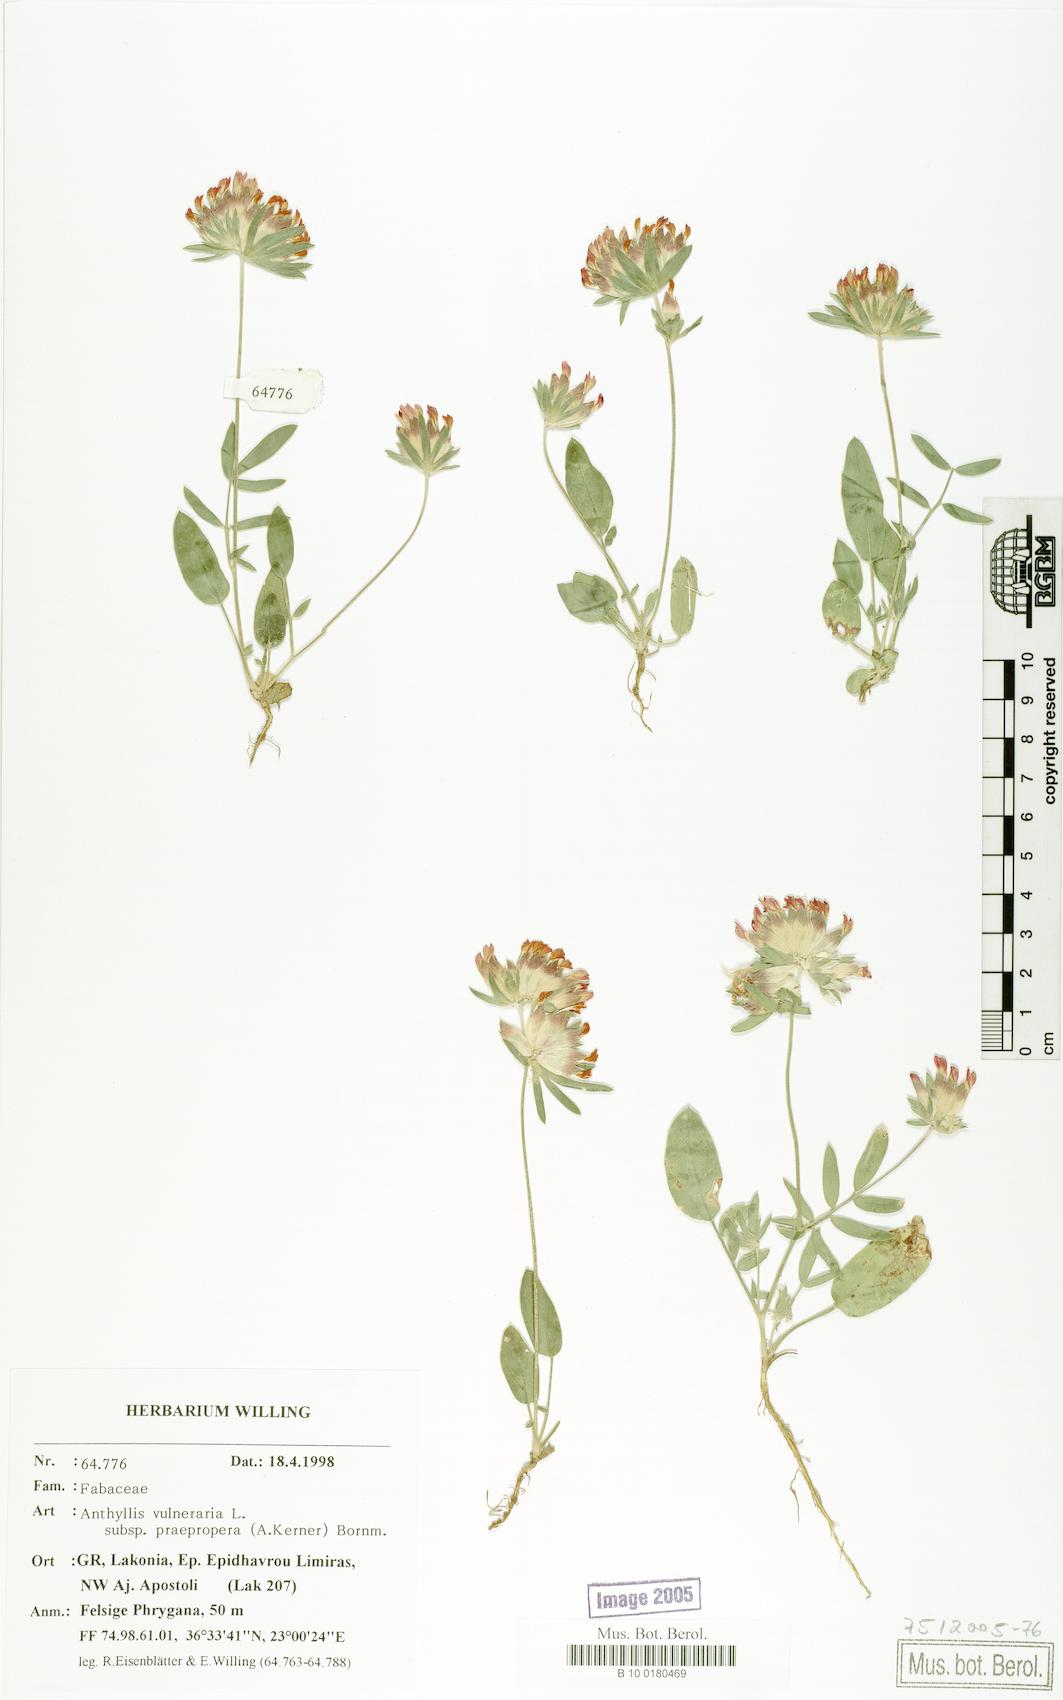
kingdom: Plantae
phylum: Tracheophyta
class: Magnoliopsida
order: Fabales
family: Fabaceae
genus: Anthyllis
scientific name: Anthyllis vulneraria
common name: Kidney vetch
